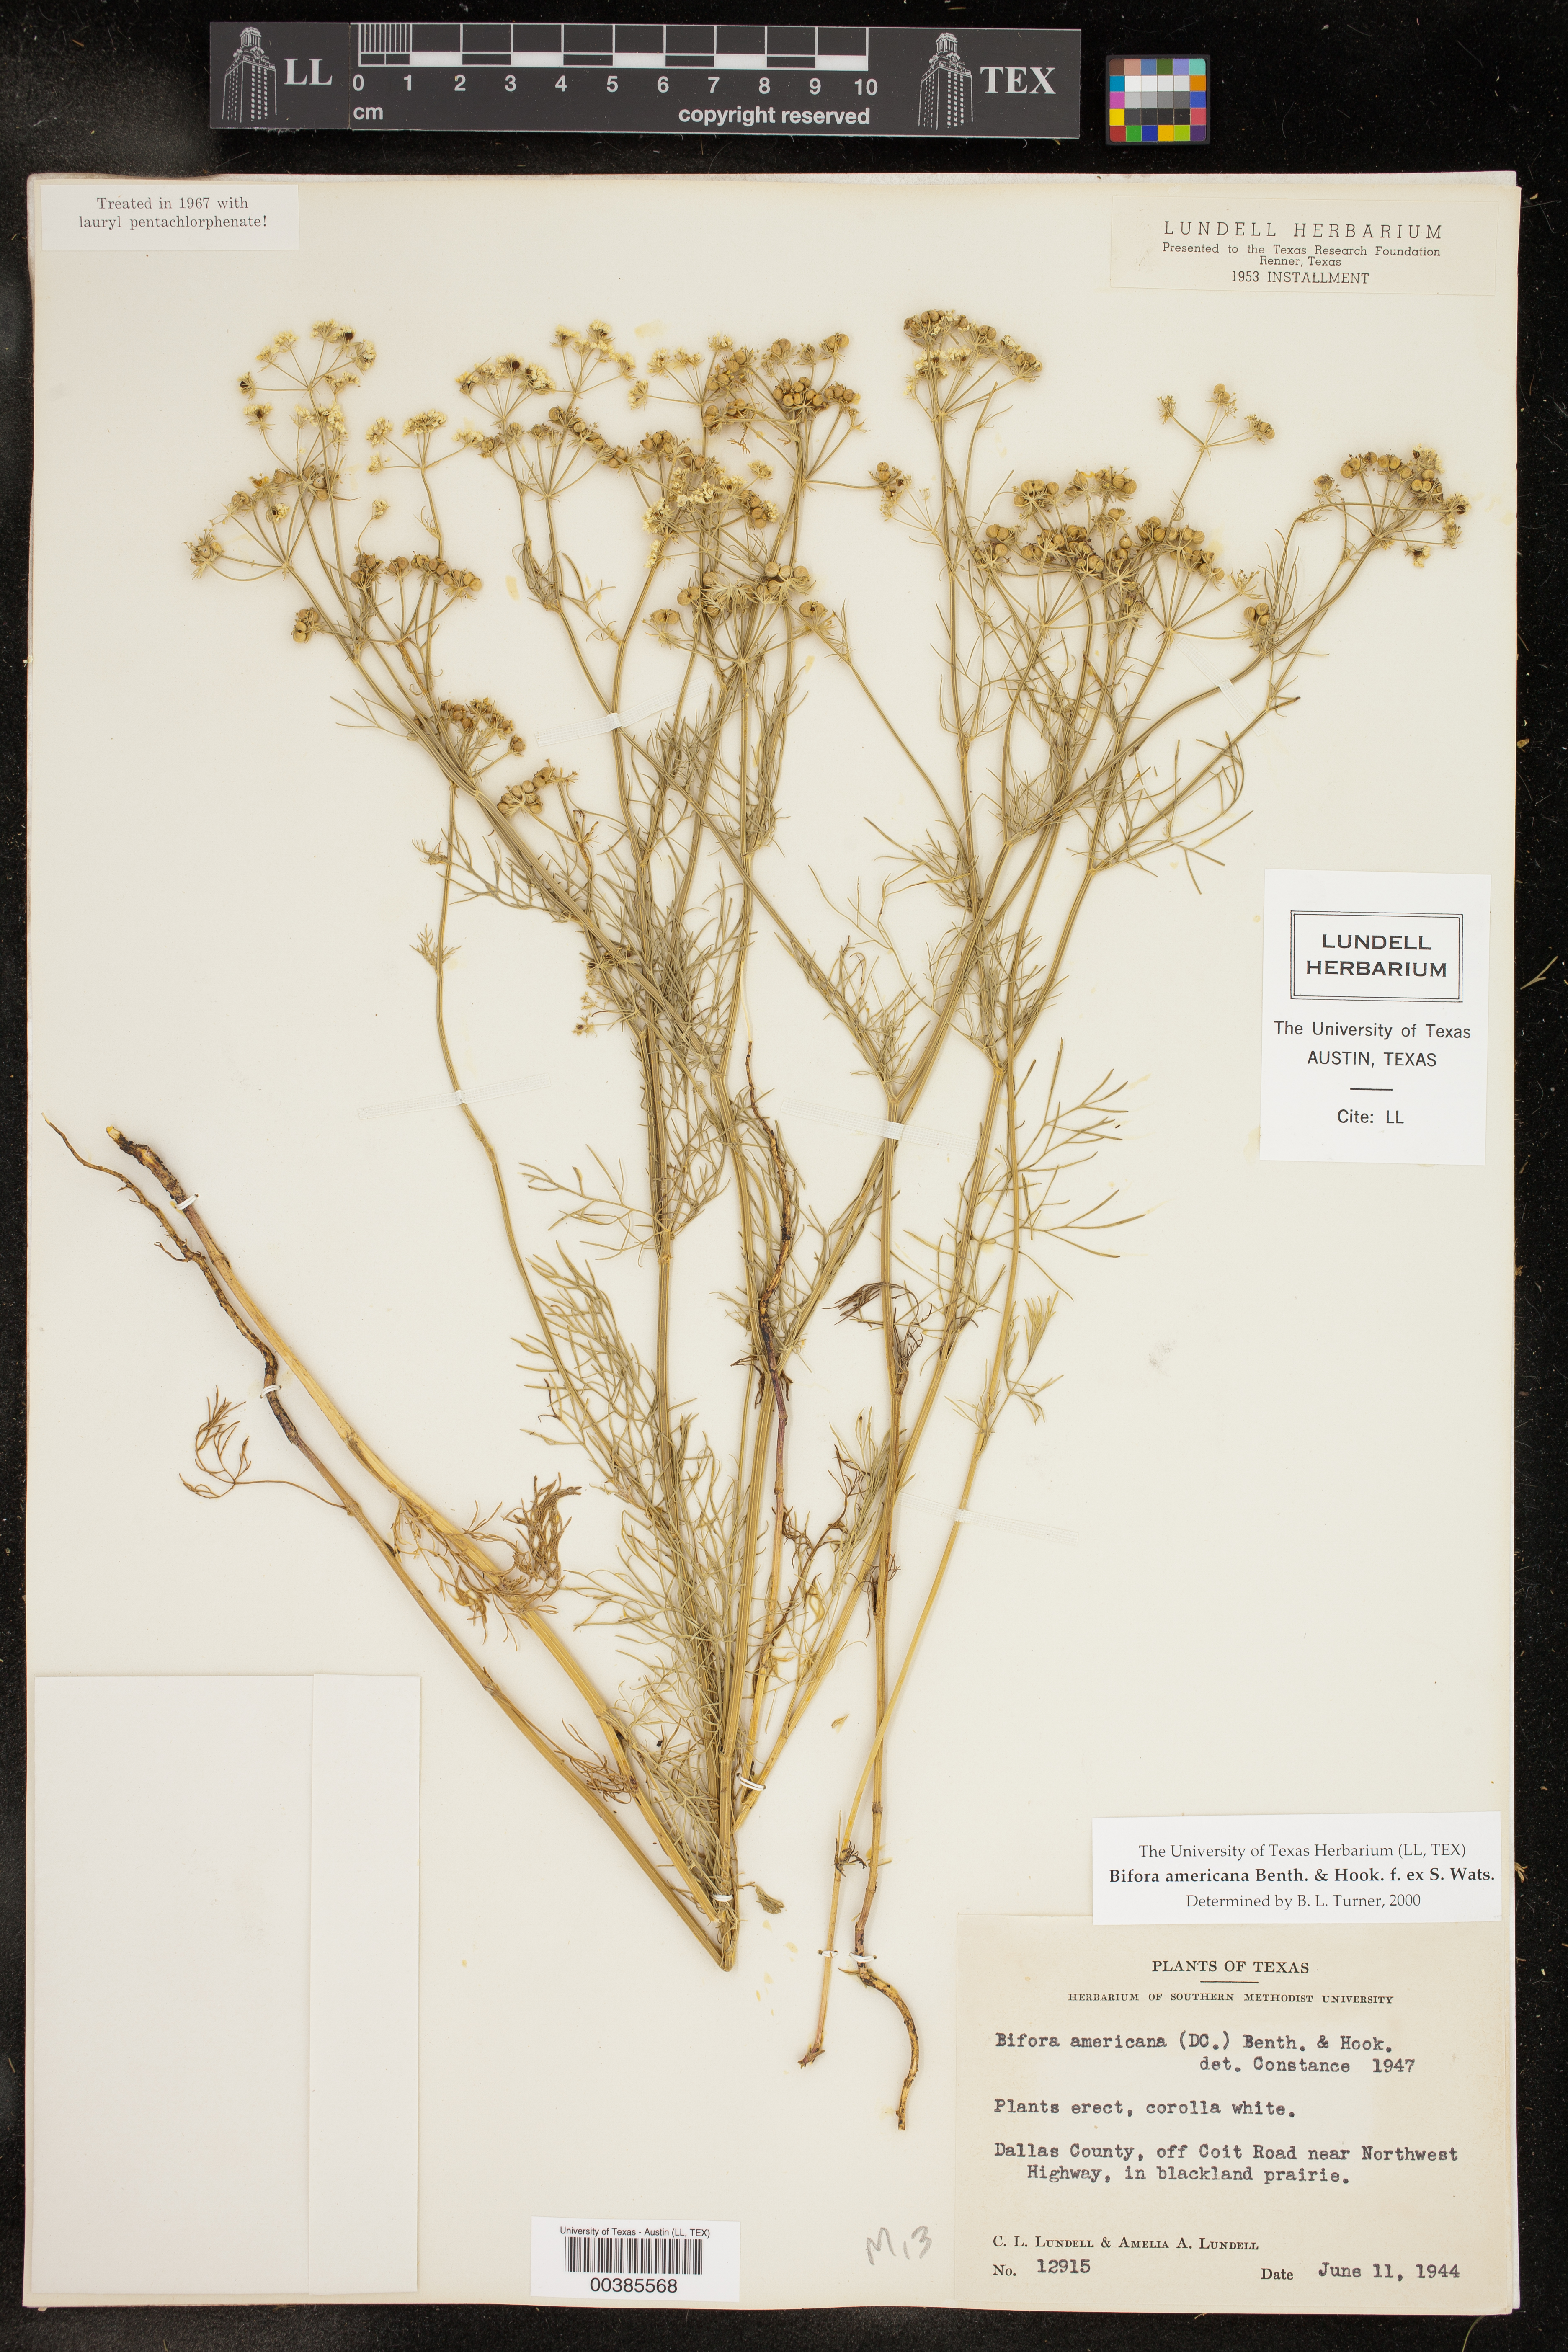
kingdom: Plantae
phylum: Tracheophyta
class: Magnoliopsida
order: Apiales
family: Apiaceae
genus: Atrema
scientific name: Atrema americanum
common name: Prairie-bishop
